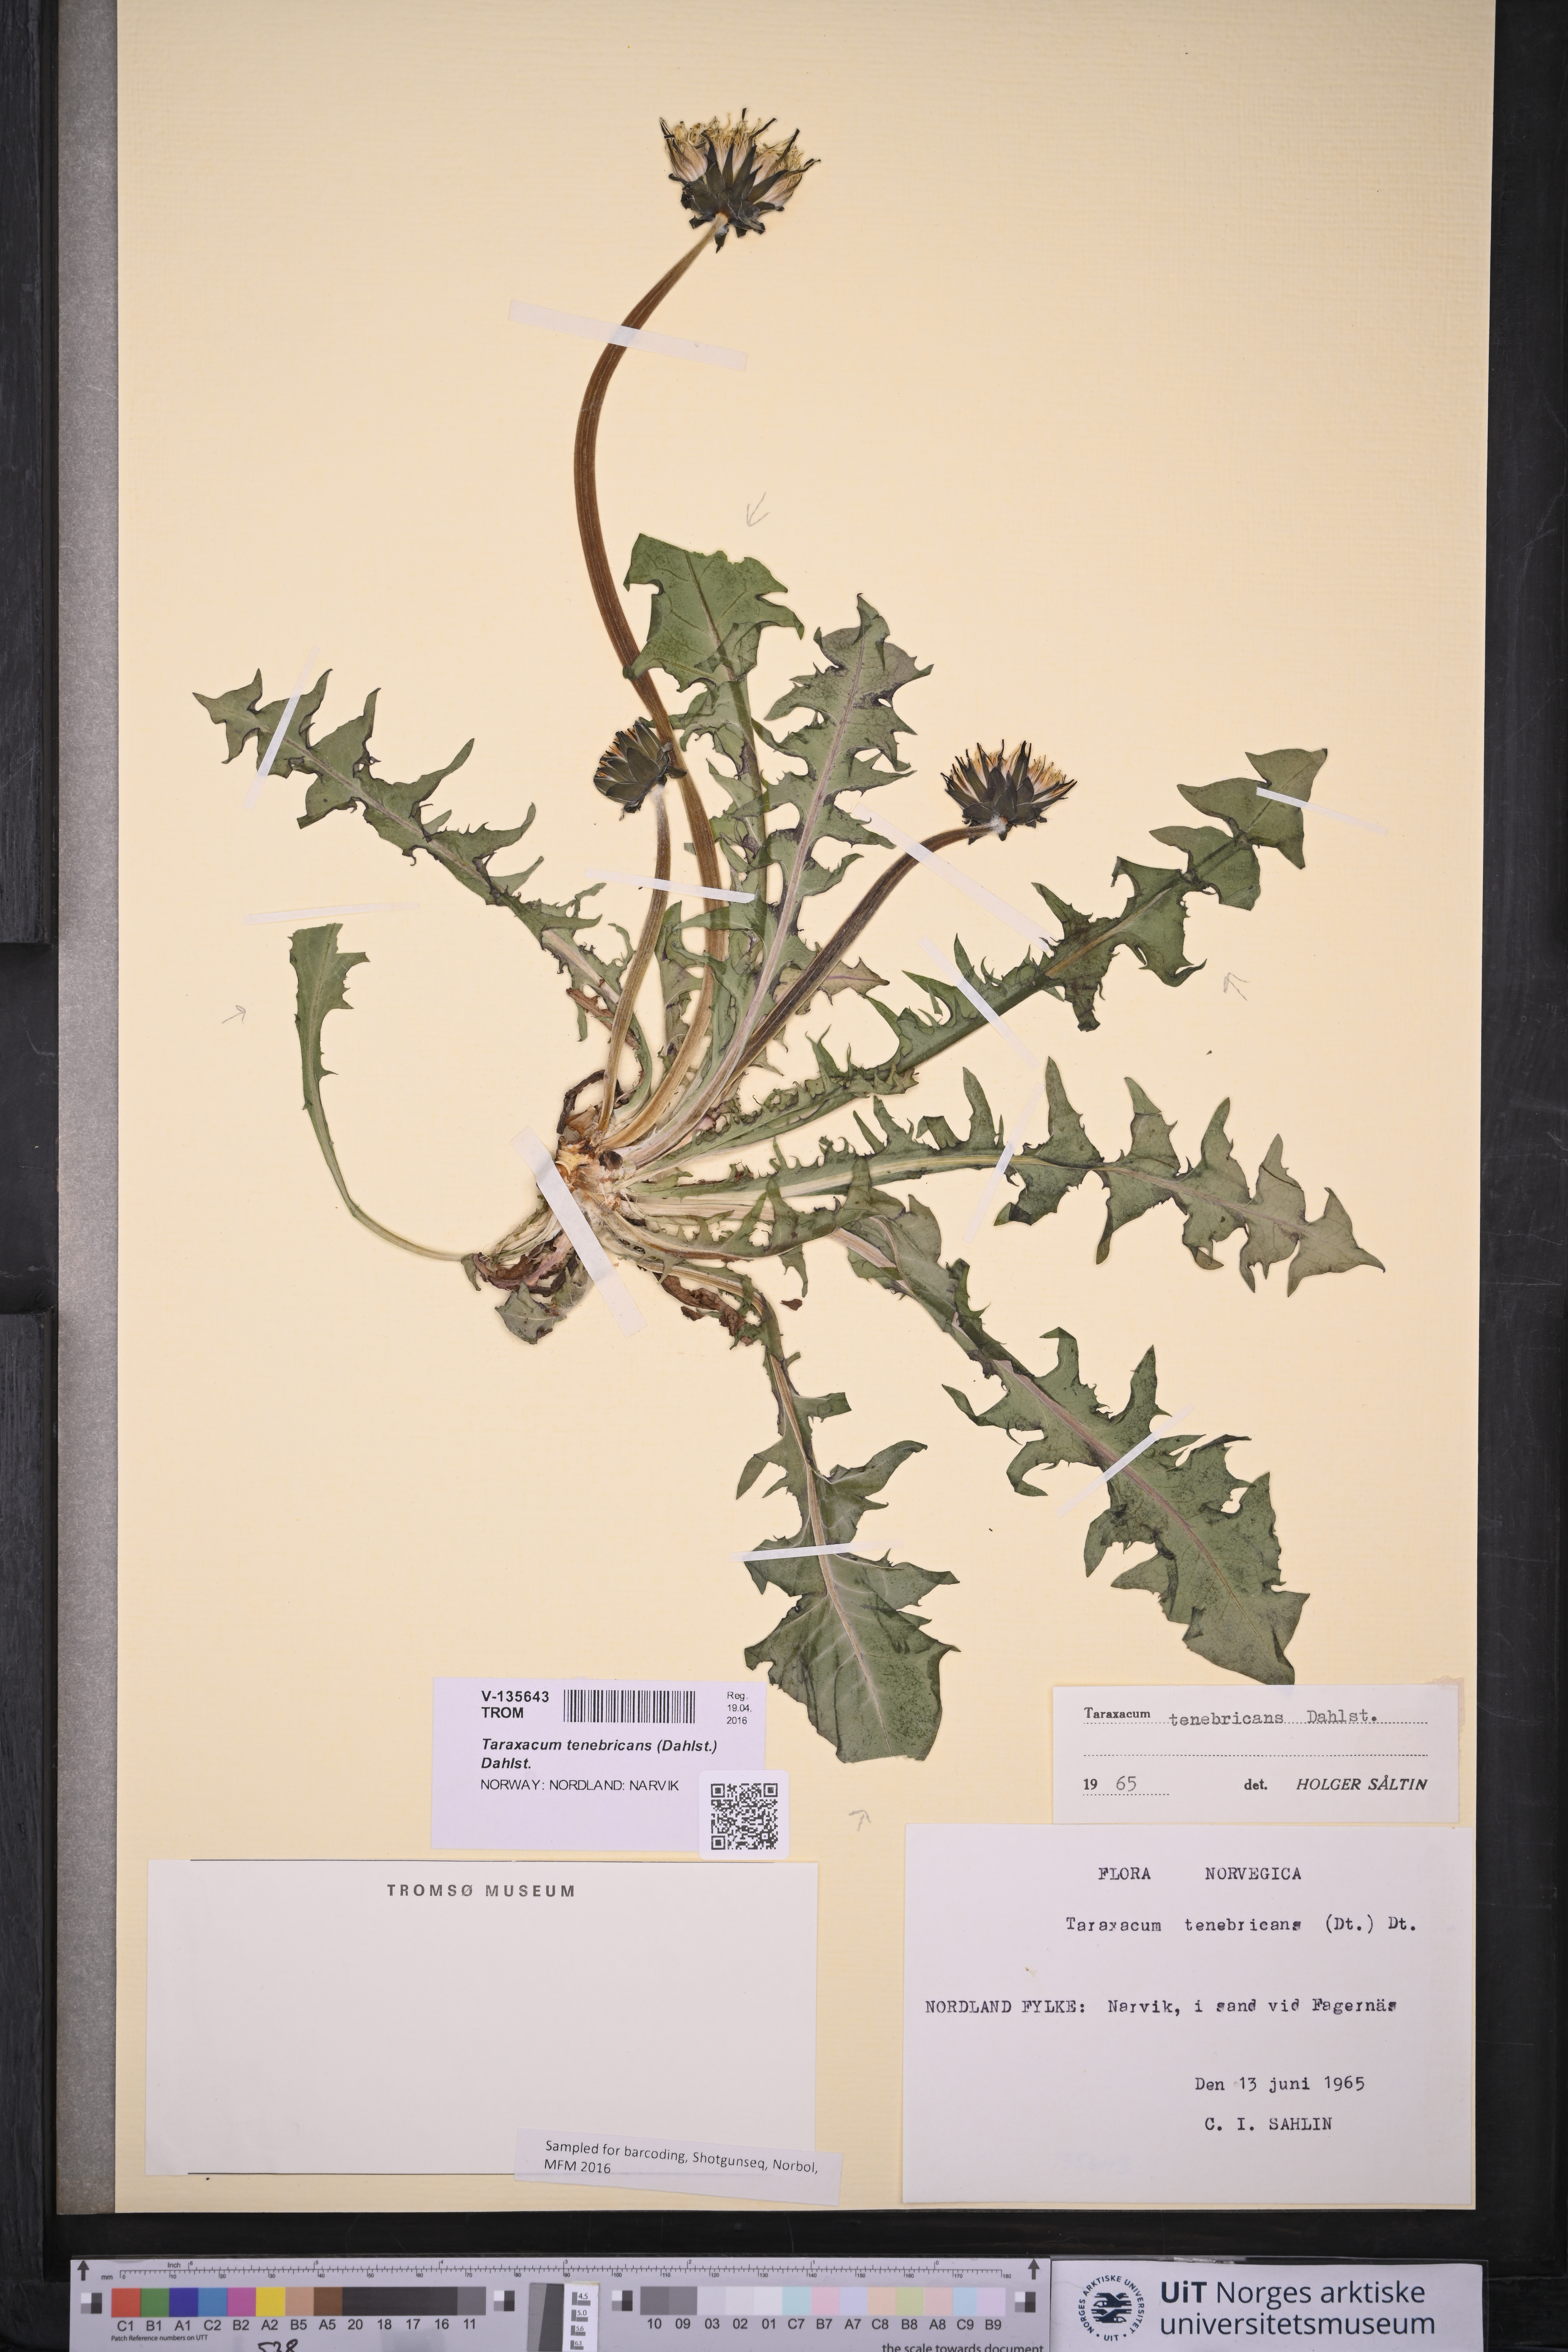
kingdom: Plantae
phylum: Tracheophyta
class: Magnoliopsida
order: Asterales
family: Asteraceae
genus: Taraxacum
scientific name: Taraxacum tenebricans
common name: Shiny-leaved dandelion
